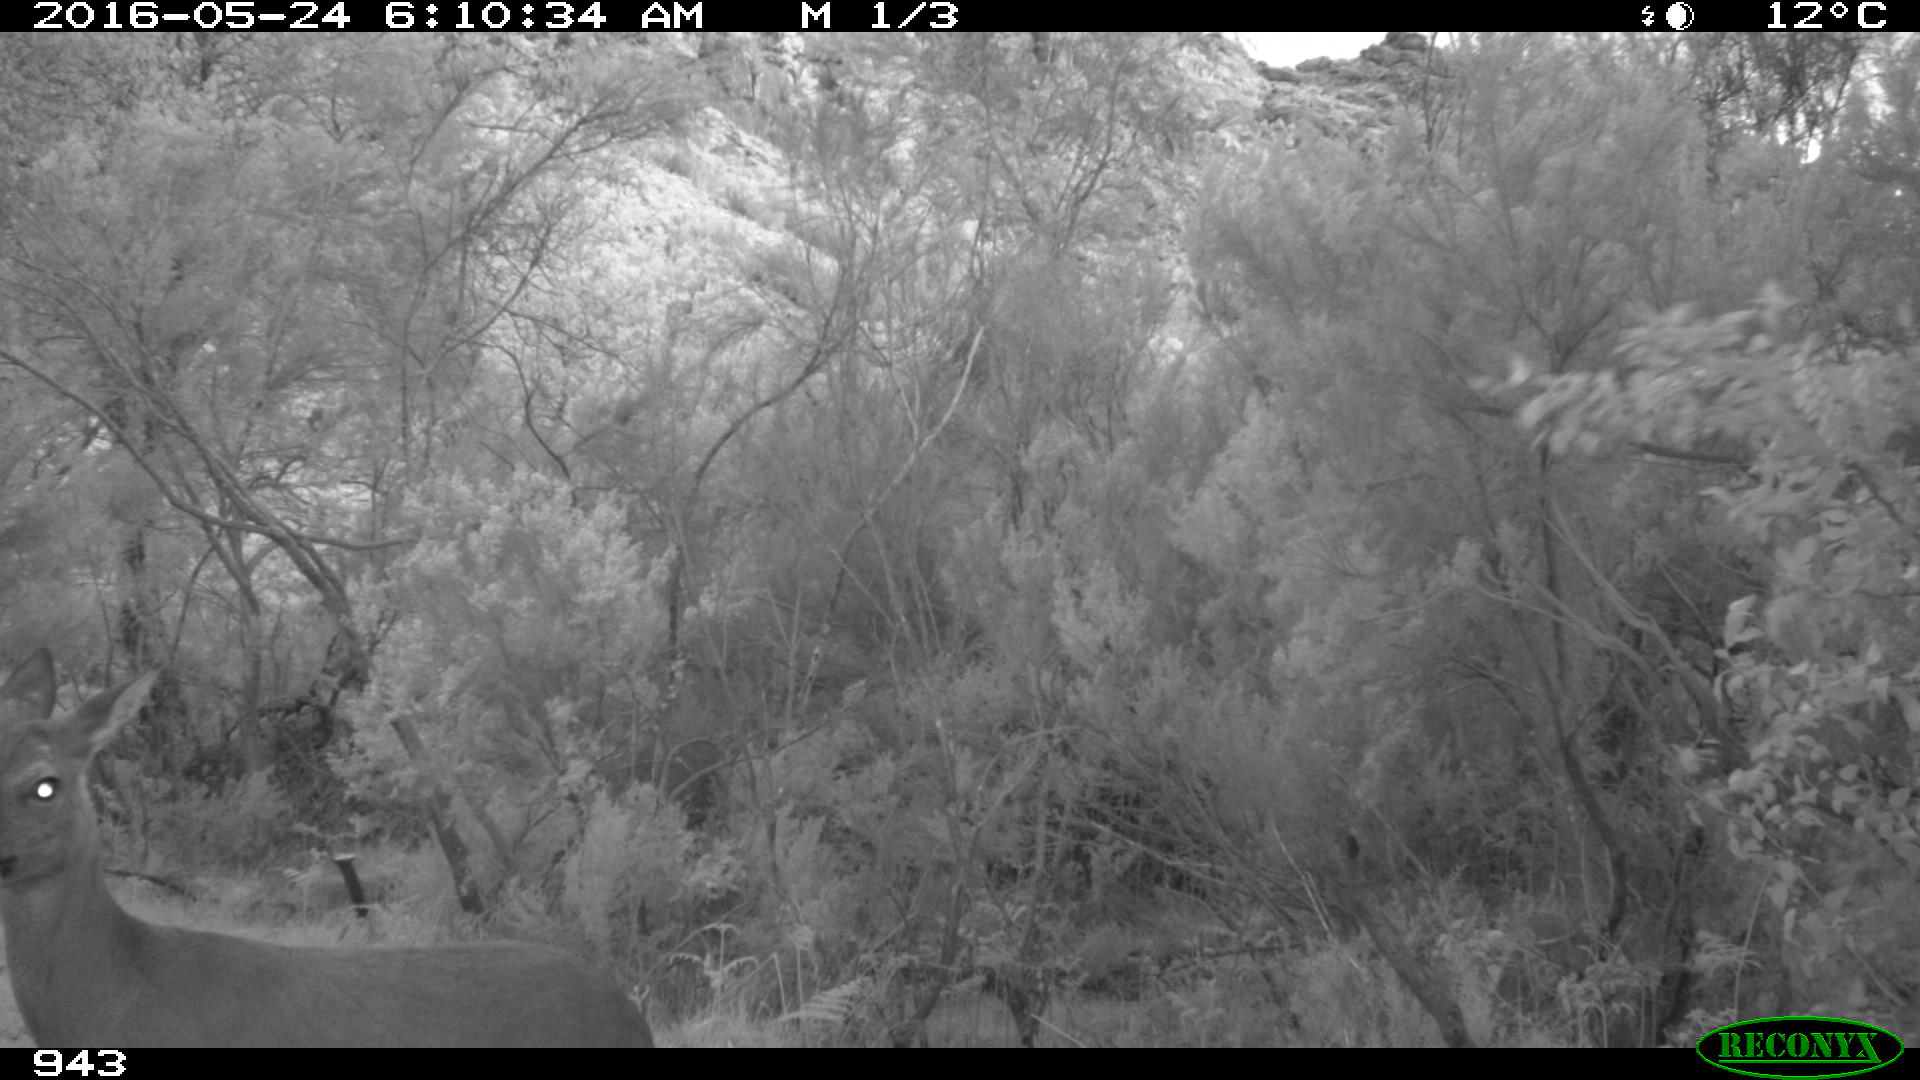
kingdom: Animalia
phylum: Chordata
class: Mammalia
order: Artiodactyla
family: Cervidae
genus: Capreolus
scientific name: Capreolus capreolus
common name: Western roe deer
